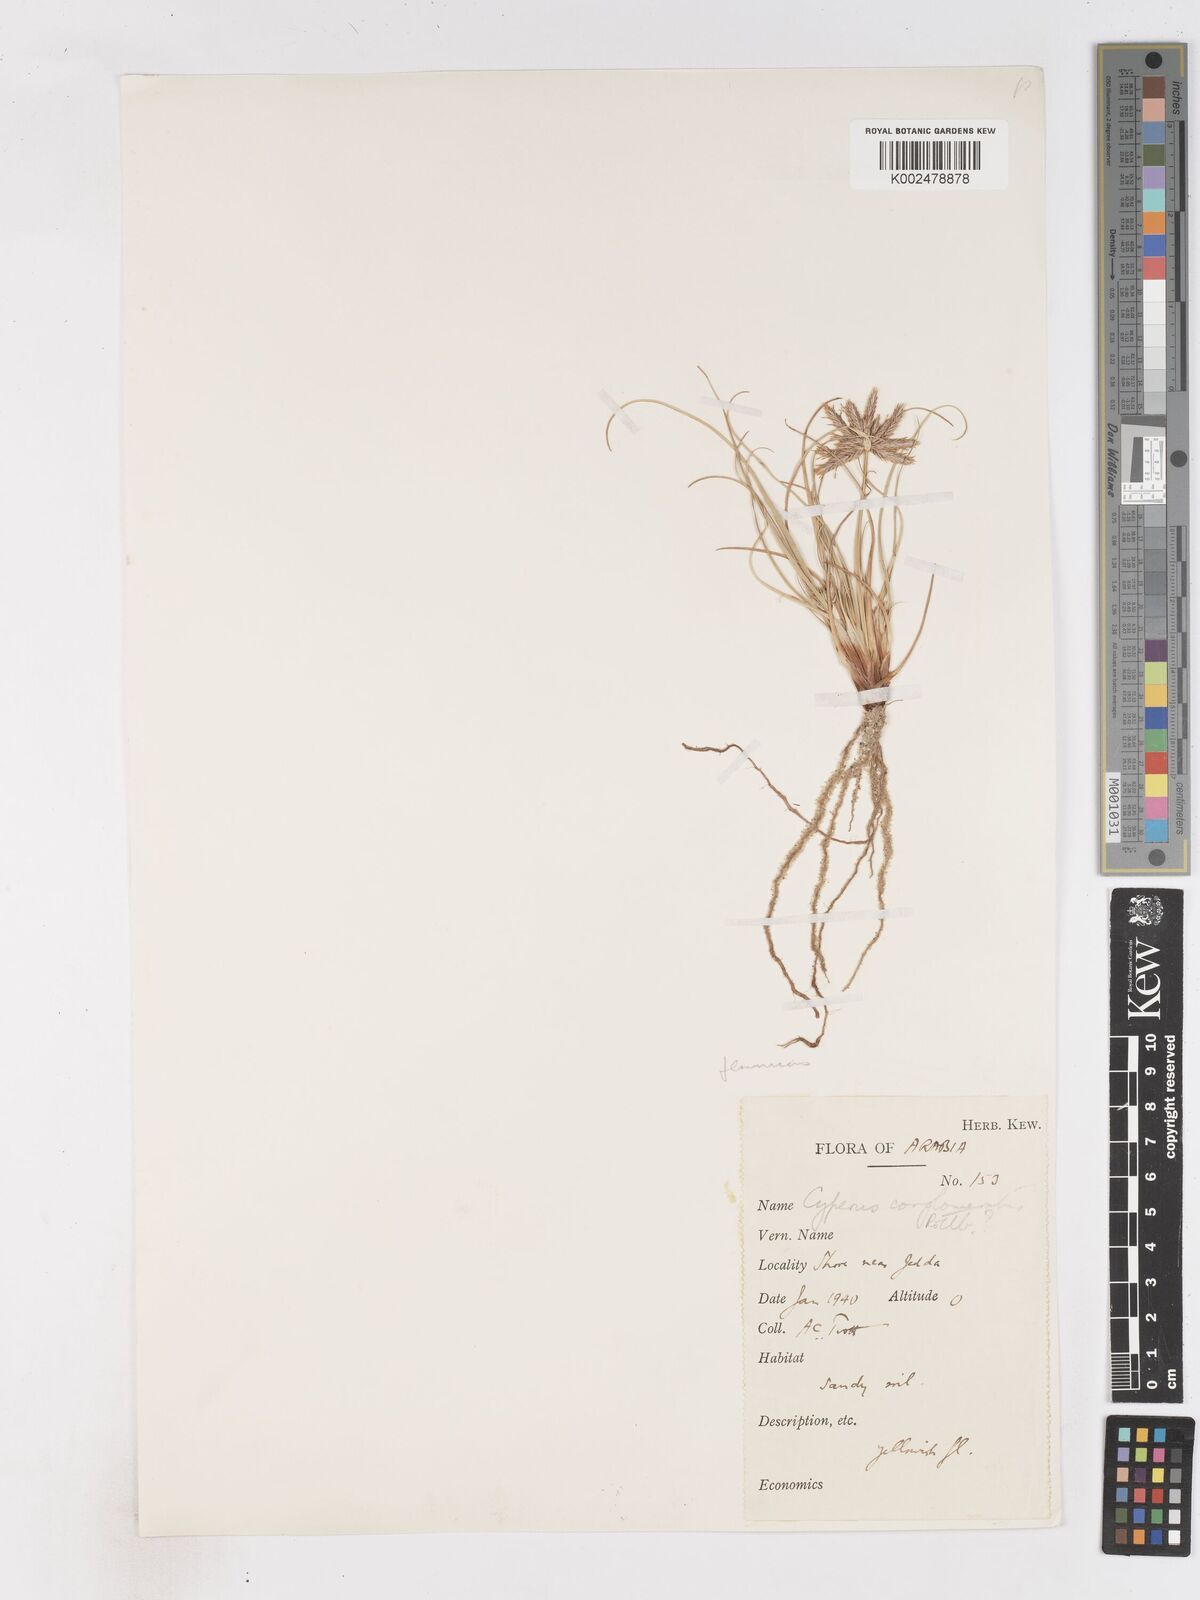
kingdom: Plantae
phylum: Tracheophyta
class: Liliopsida
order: Poales
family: Cyperaceae
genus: Cyperus
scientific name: Cyperus jeminicus
